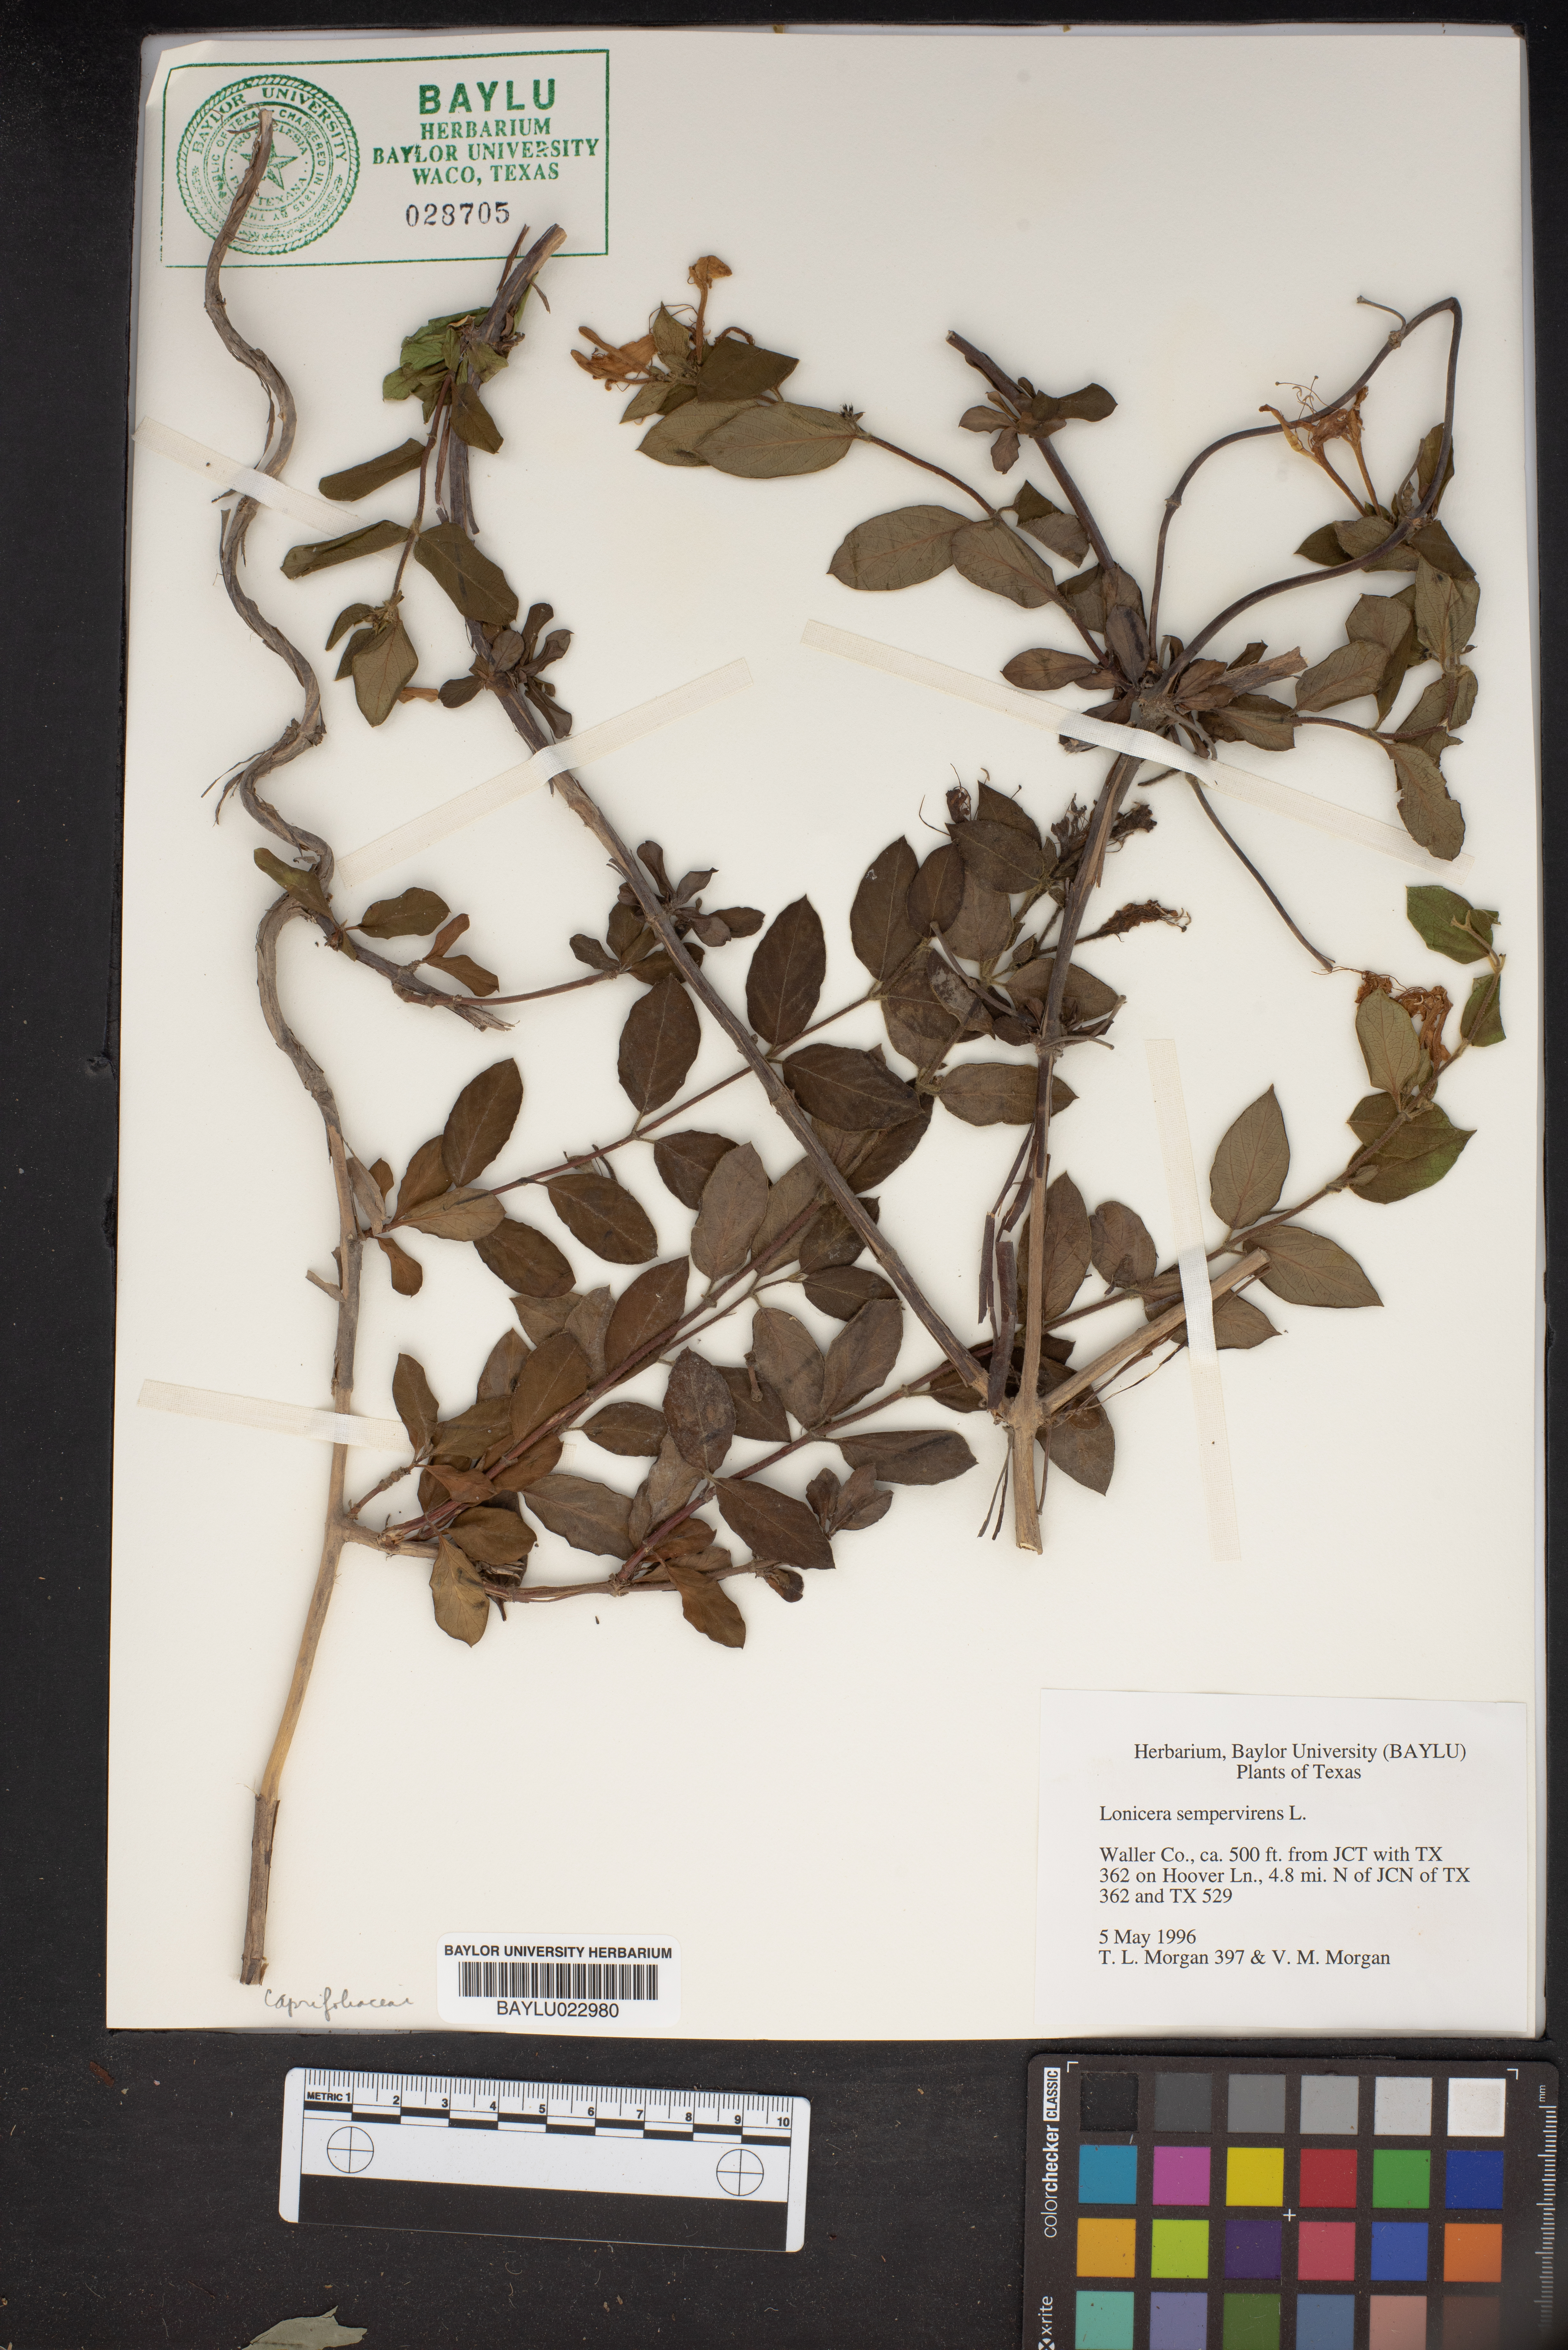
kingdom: Plantae
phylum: Tracheophyta
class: Magnoliopsida
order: Dipsacales
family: Caprifoliaceae
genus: Lonicera
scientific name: Lonicera sempervirens
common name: Coral honeysuckle
